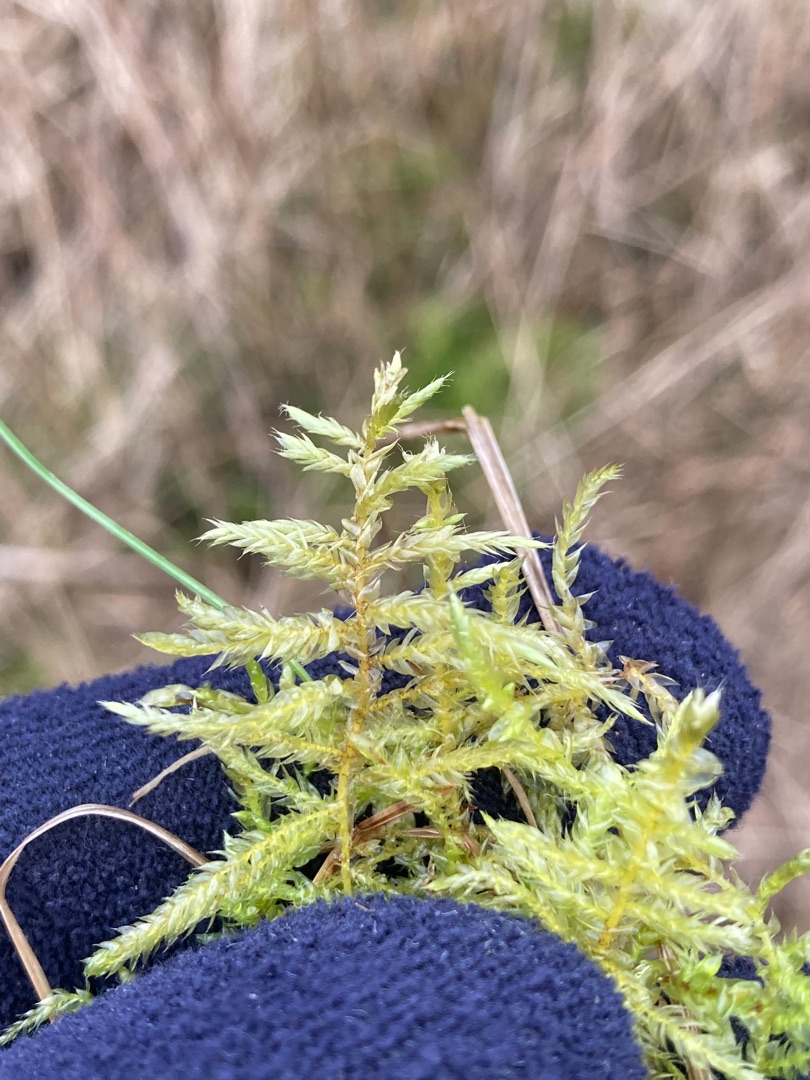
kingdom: Plantae
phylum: Bryophyta
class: Bryopsida
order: Hypnales
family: Brachytheciaceae
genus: Cirriphyllum
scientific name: Cirriphyllum piliferum
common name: Almindelig penselmos
